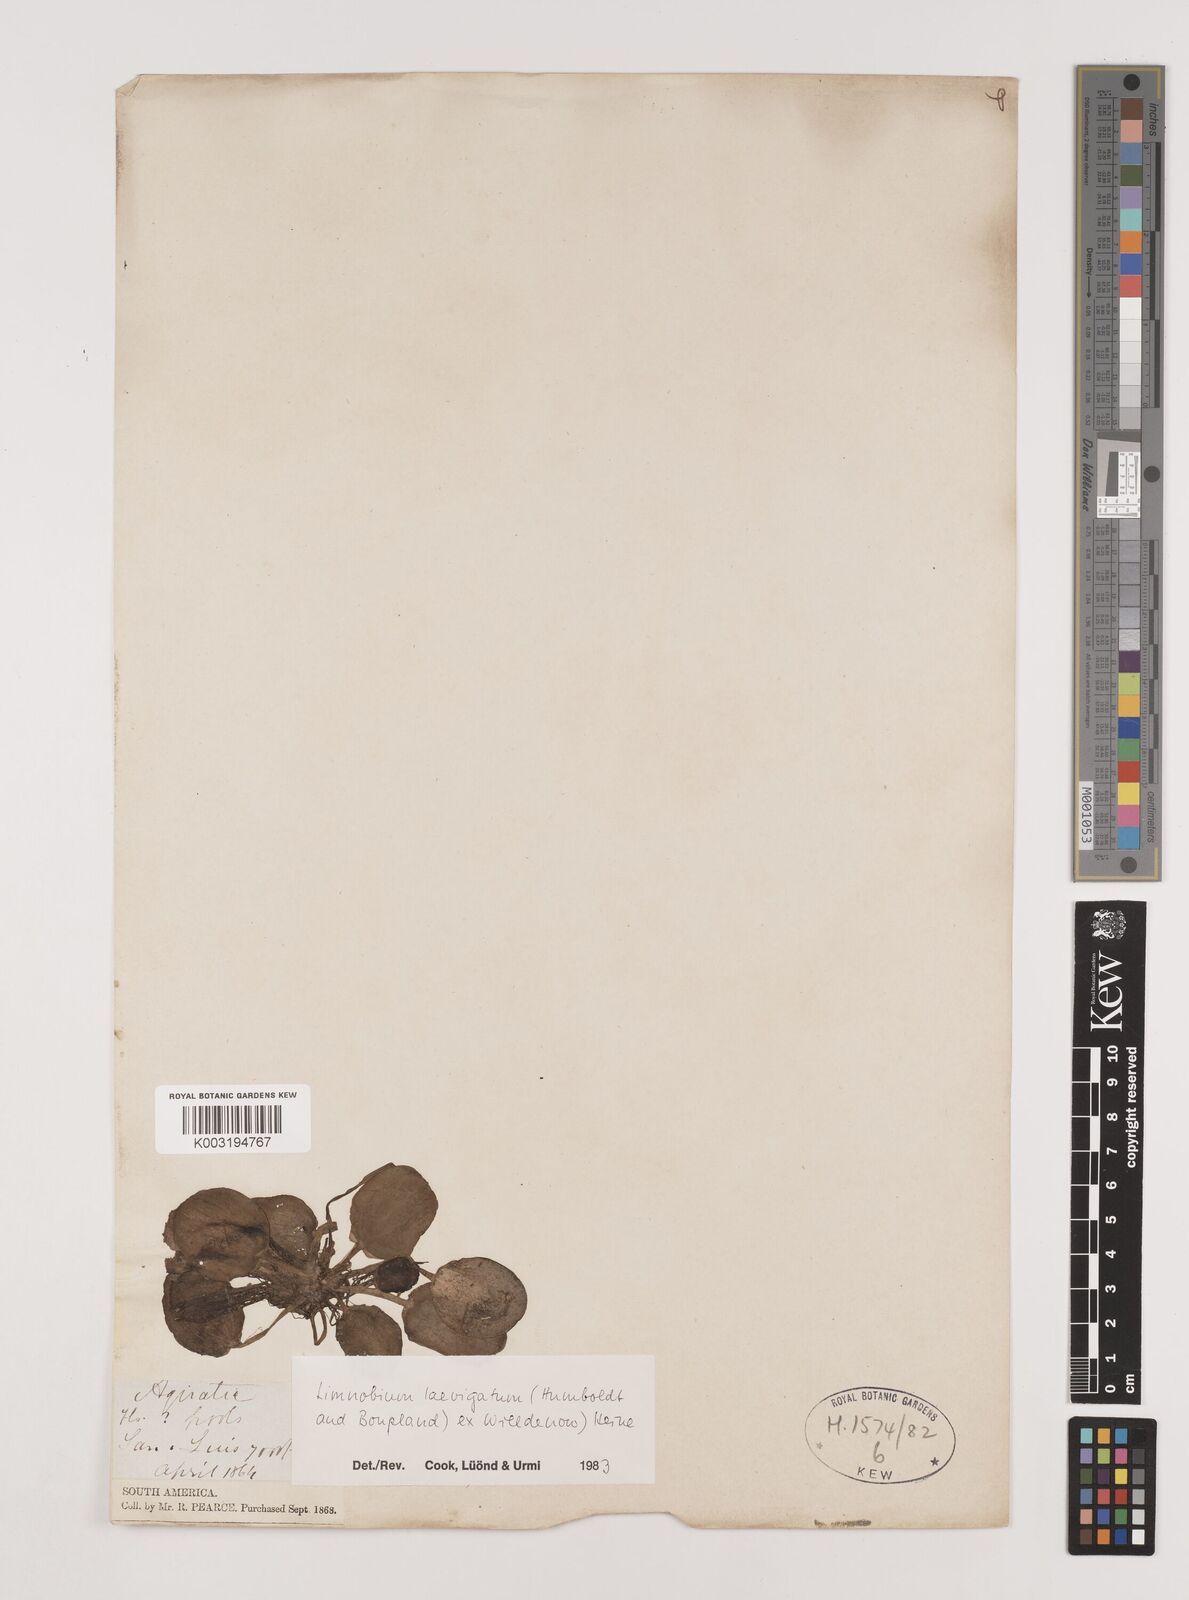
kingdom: Plantae
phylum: Tracheophyta
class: Liliopsida
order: Alismatales
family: Hydrocharitaceae
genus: Hydrocharis
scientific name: Hydrocharis laevigata
